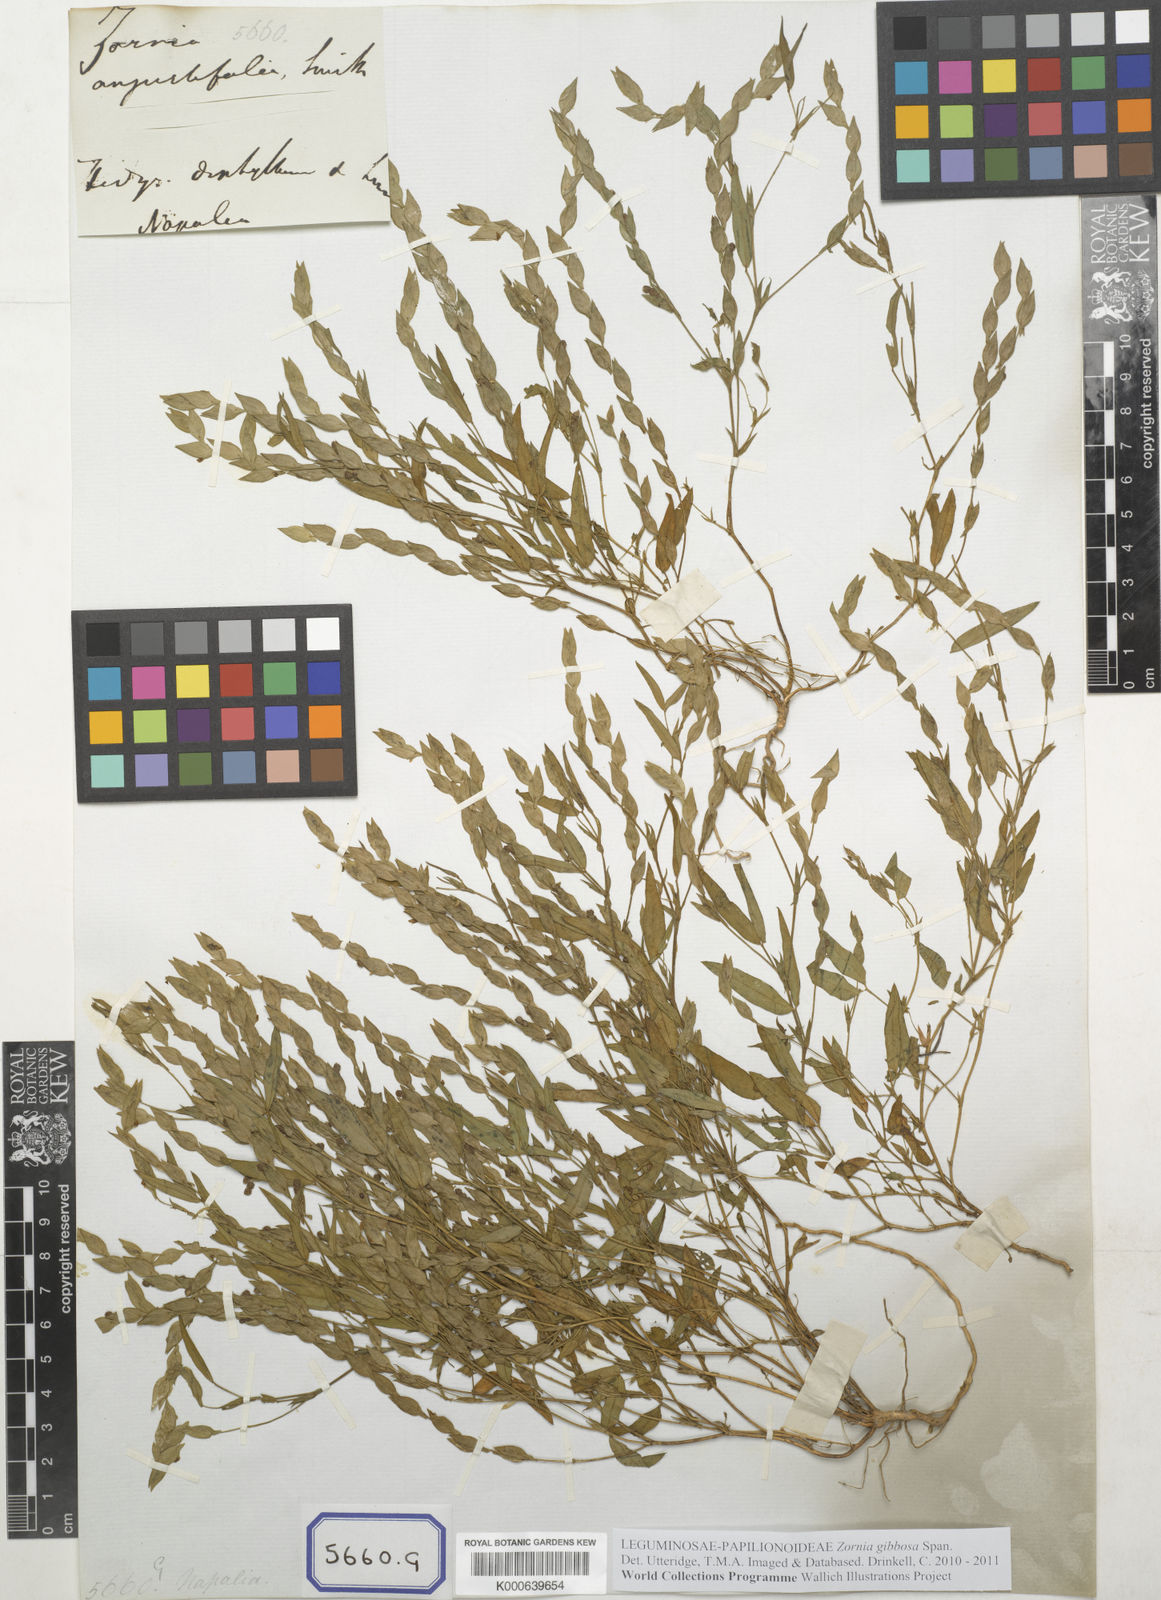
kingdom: Plantae
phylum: Tracheophyta
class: Magnoliopsida
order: Fabales
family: Fabaceae
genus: Zornia
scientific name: Zornia gibbosa
